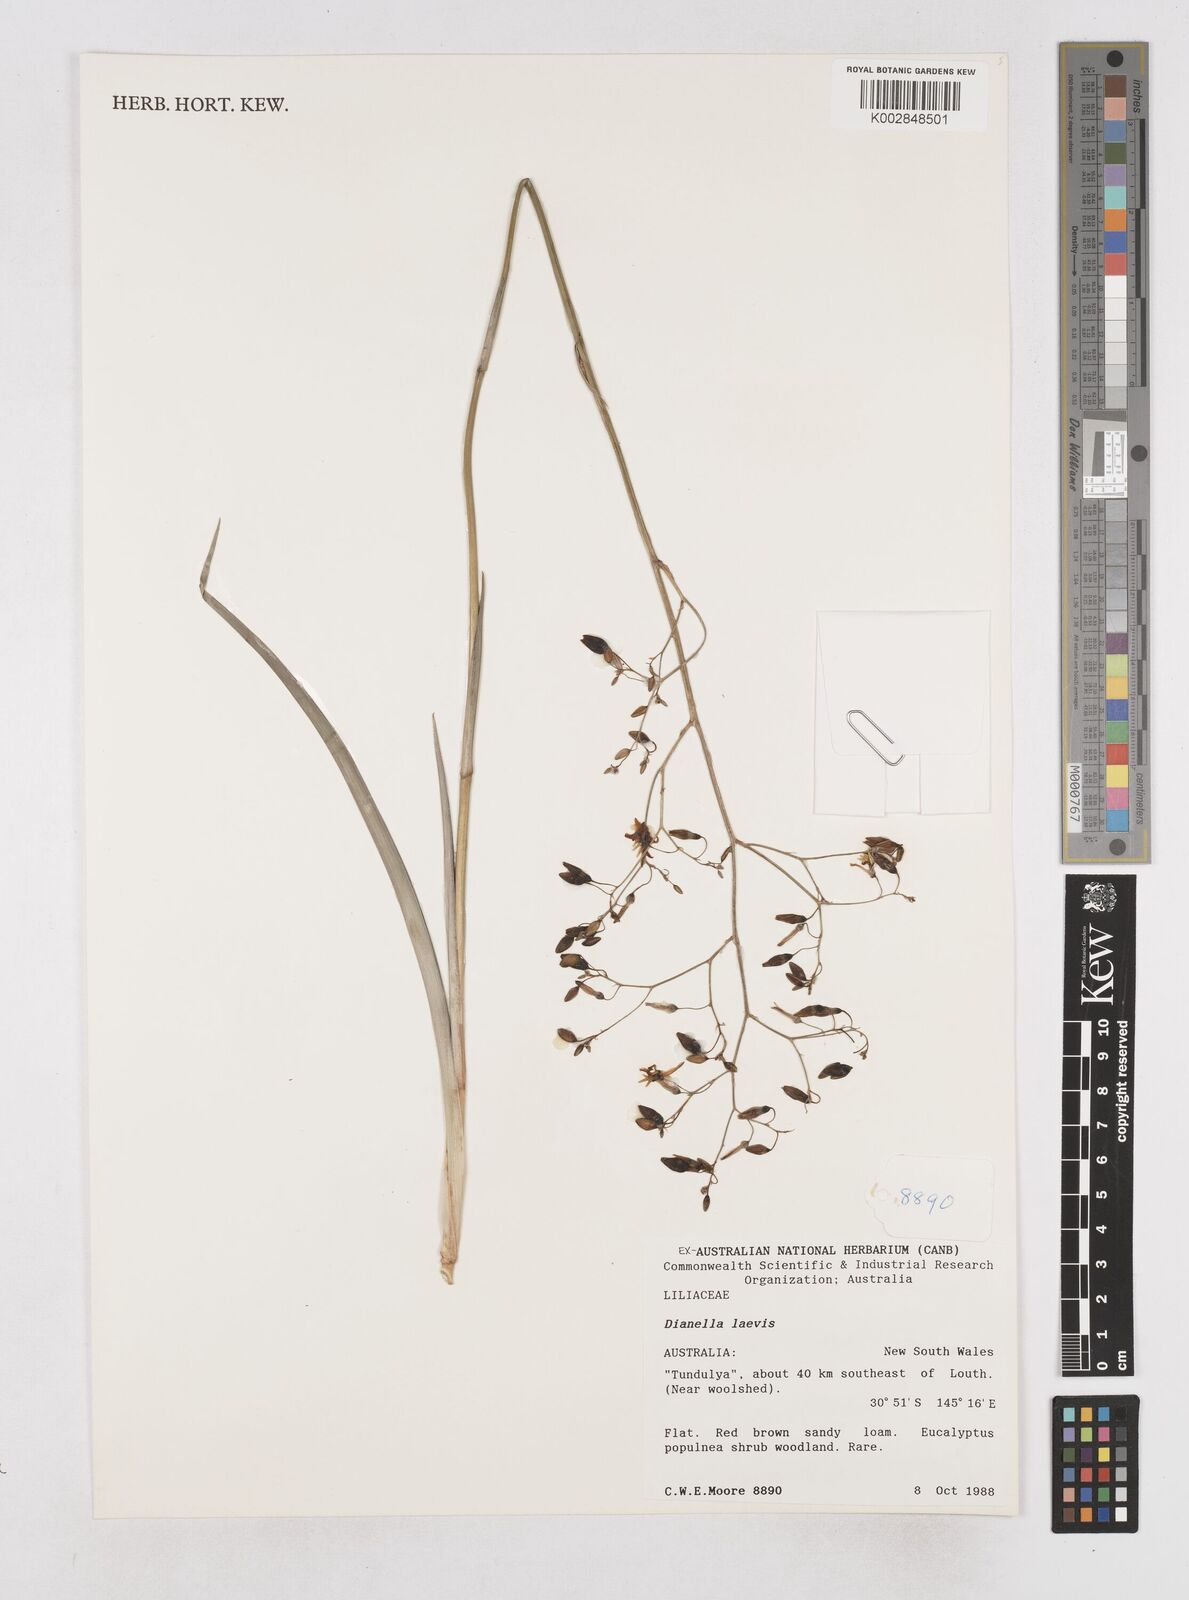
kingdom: Plantae
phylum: Tracheophyta
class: Liliopsida
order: Asparagales
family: Asphodelaceae
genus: Dianella
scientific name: Dianella longifolia
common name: Blue flax-lily
